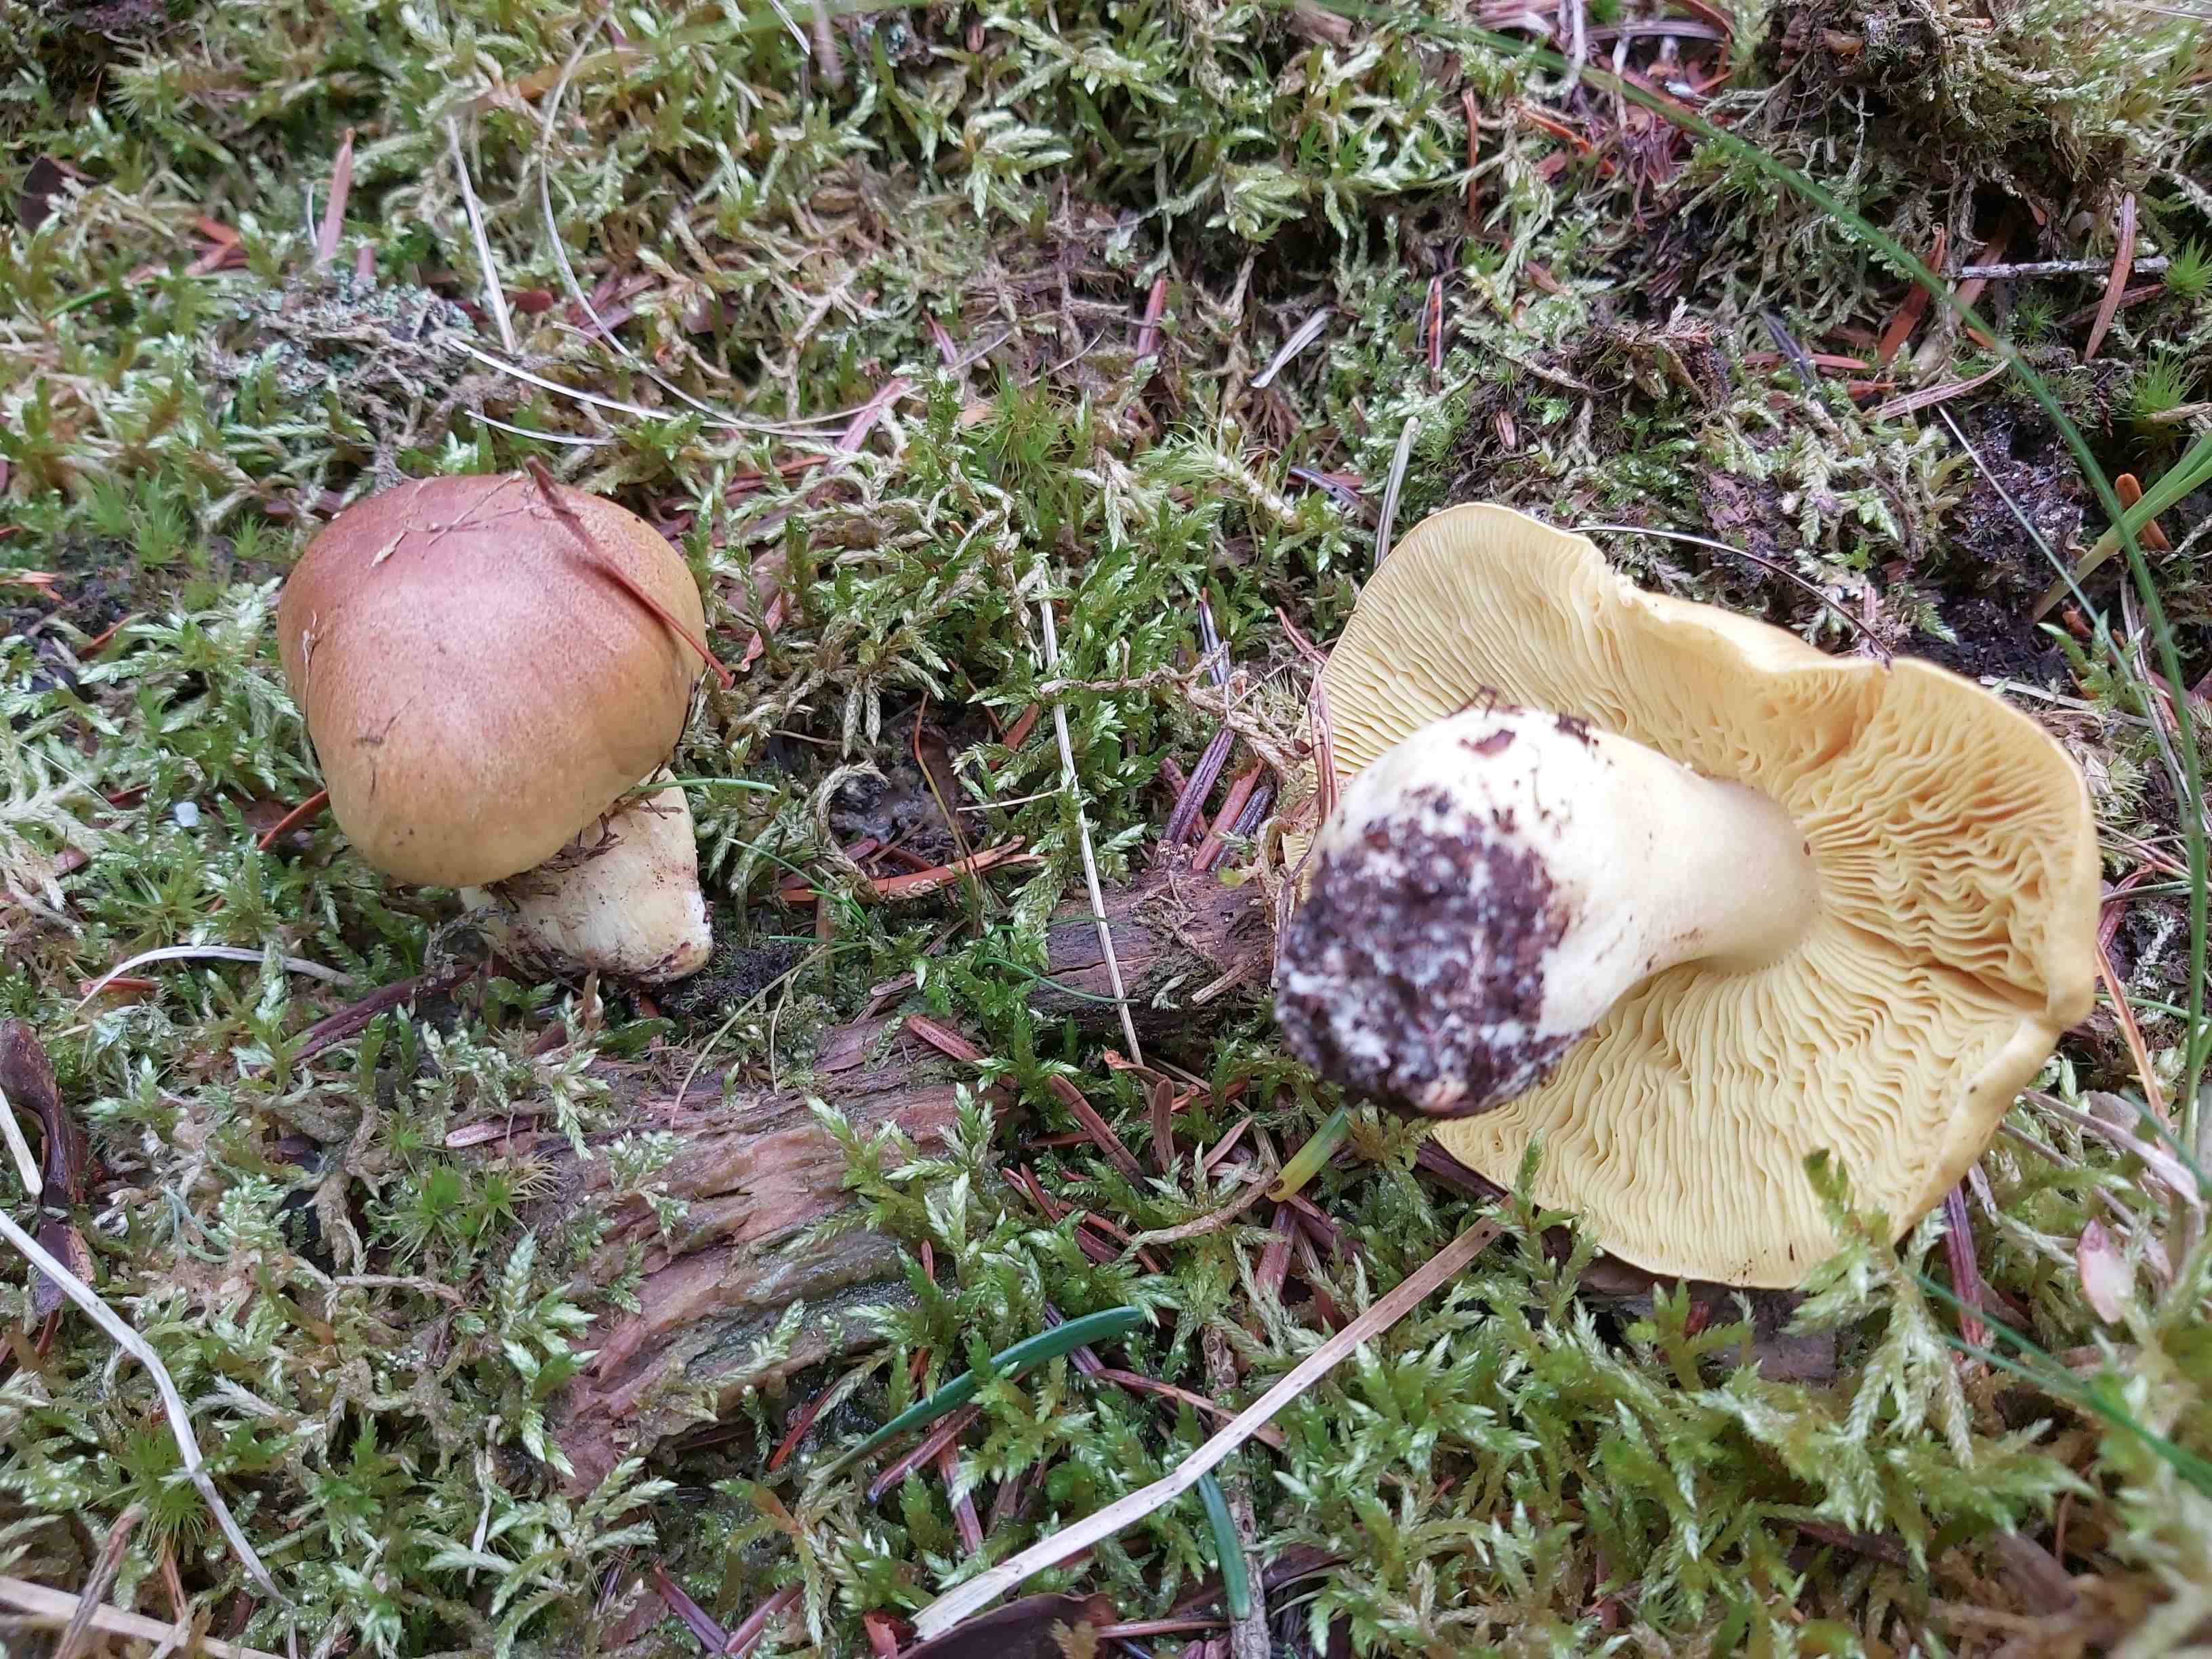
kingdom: Fungi
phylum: Basidiomycota
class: Agaricomycetes
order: Agaricales
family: Tricholomataceae
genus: Tricholoma
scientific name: Tricholoma equestre
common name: ægte ridderhat
